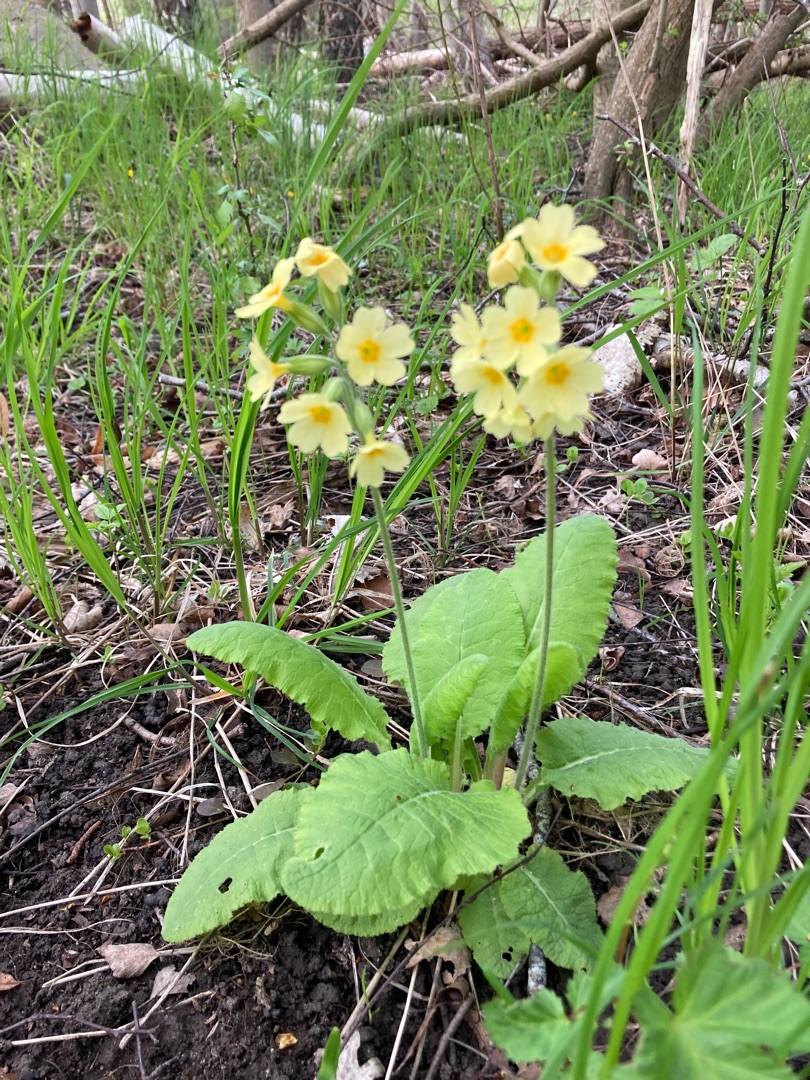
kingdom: Plantae
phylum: Tracheophyta
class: Magnoliopsida
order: Ericales
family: Primulaceae
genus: Primula
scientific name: Primula elatior
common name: Fladkravet kodriver
